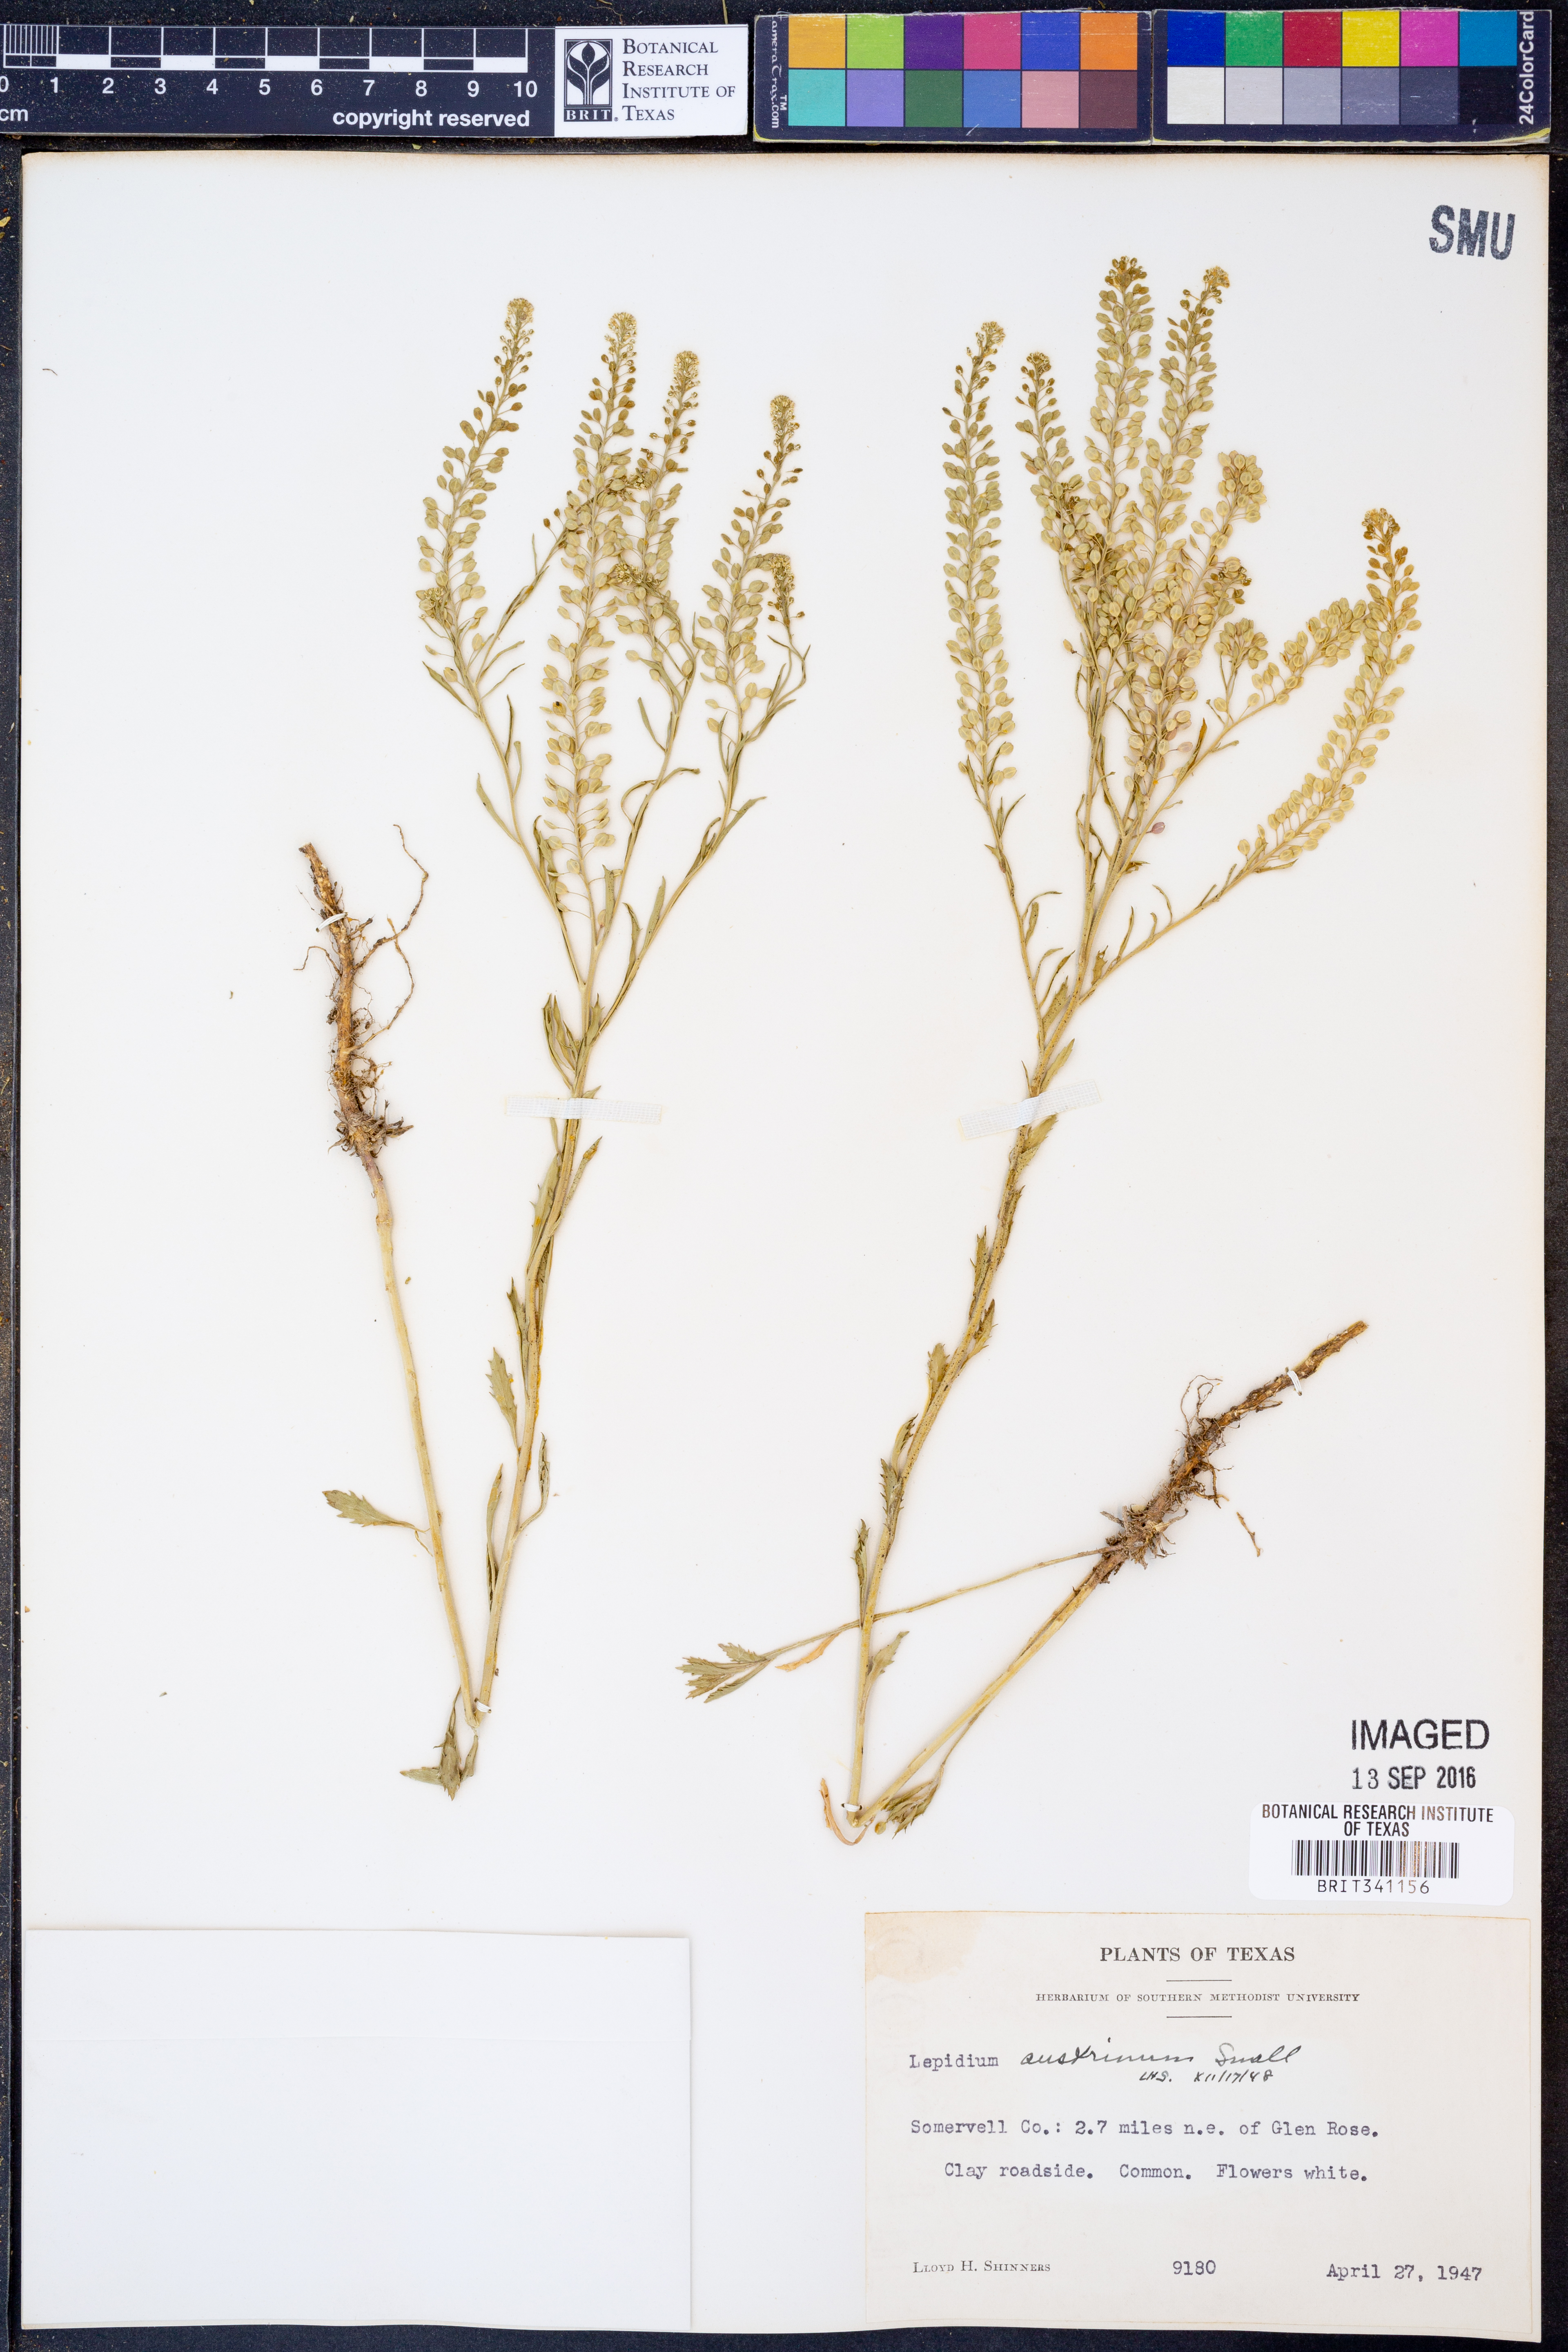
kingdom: Plantae
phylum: Tracheophyta
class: Magnoliopsida
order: Brassicales
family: Brassicaceae
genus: Lepidium
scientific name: Lepidium austrinum
